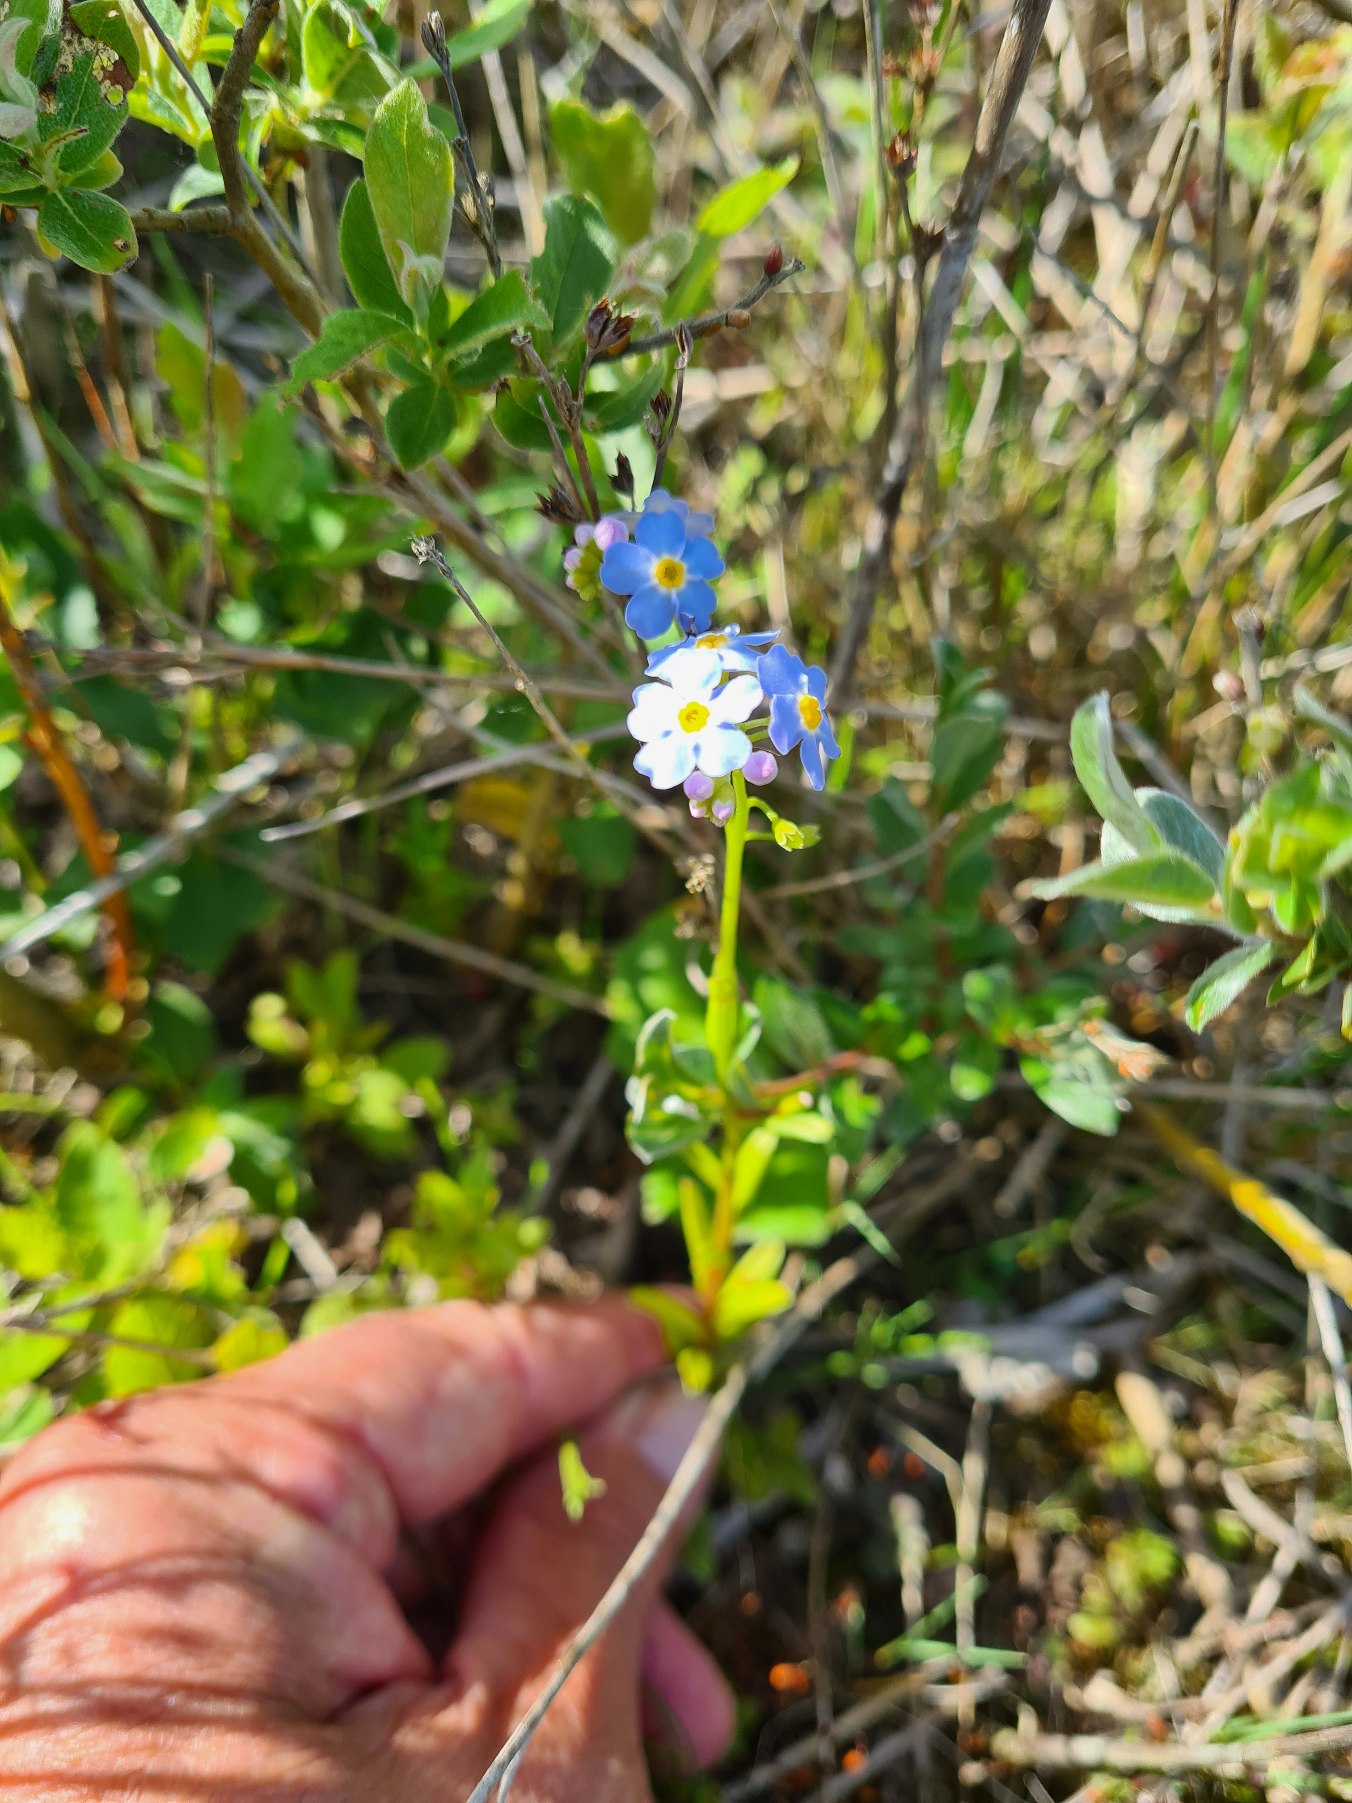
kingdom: Plantae
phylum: Tracheophyta
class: Magnoliopsida
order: Boraginales
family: Boraginaceae
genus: Myosotis
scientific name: Myosotis scorpioides
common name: Eng-forglemmigej
